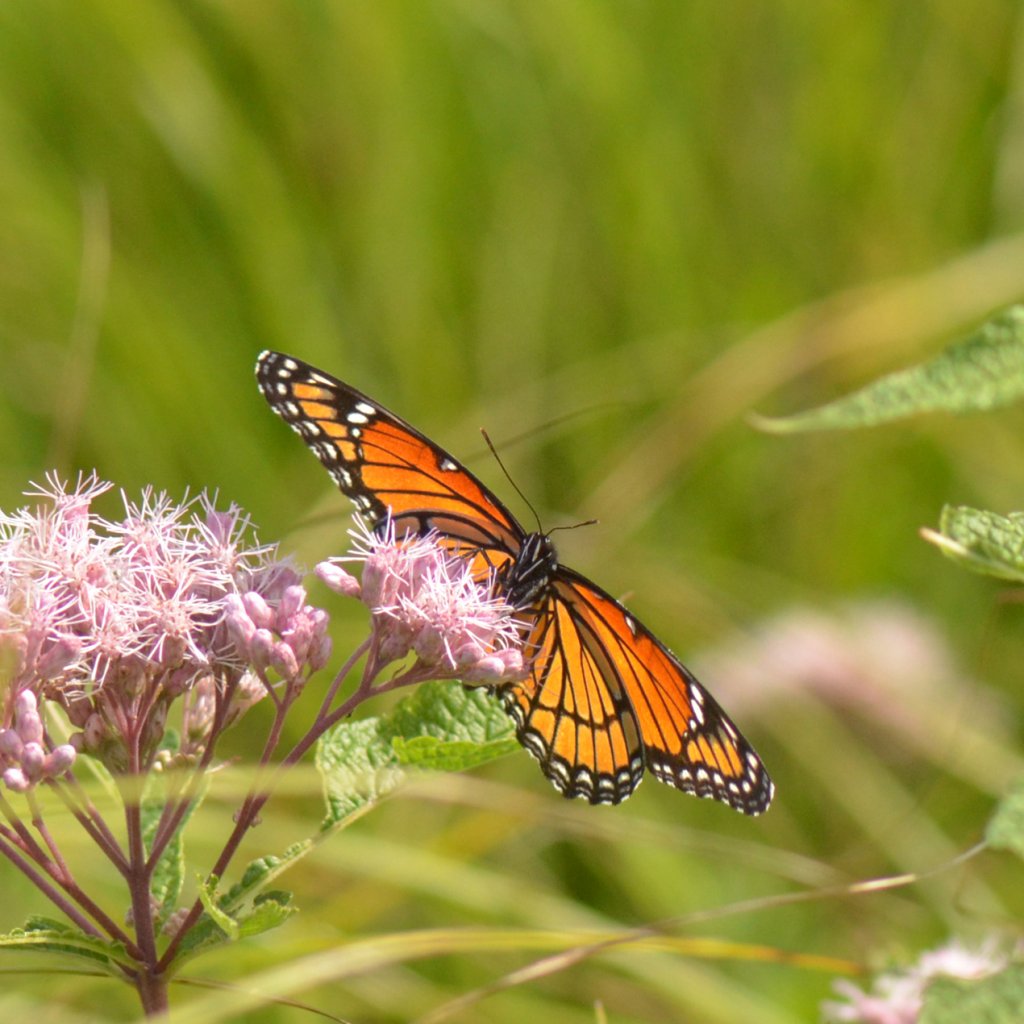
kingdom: Animalia
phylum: Arthropoda
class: Insecta
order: Lepidoptera
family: Nymphalidae
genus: Limenitis
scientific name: Limenitis archippus
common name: Viceroy
